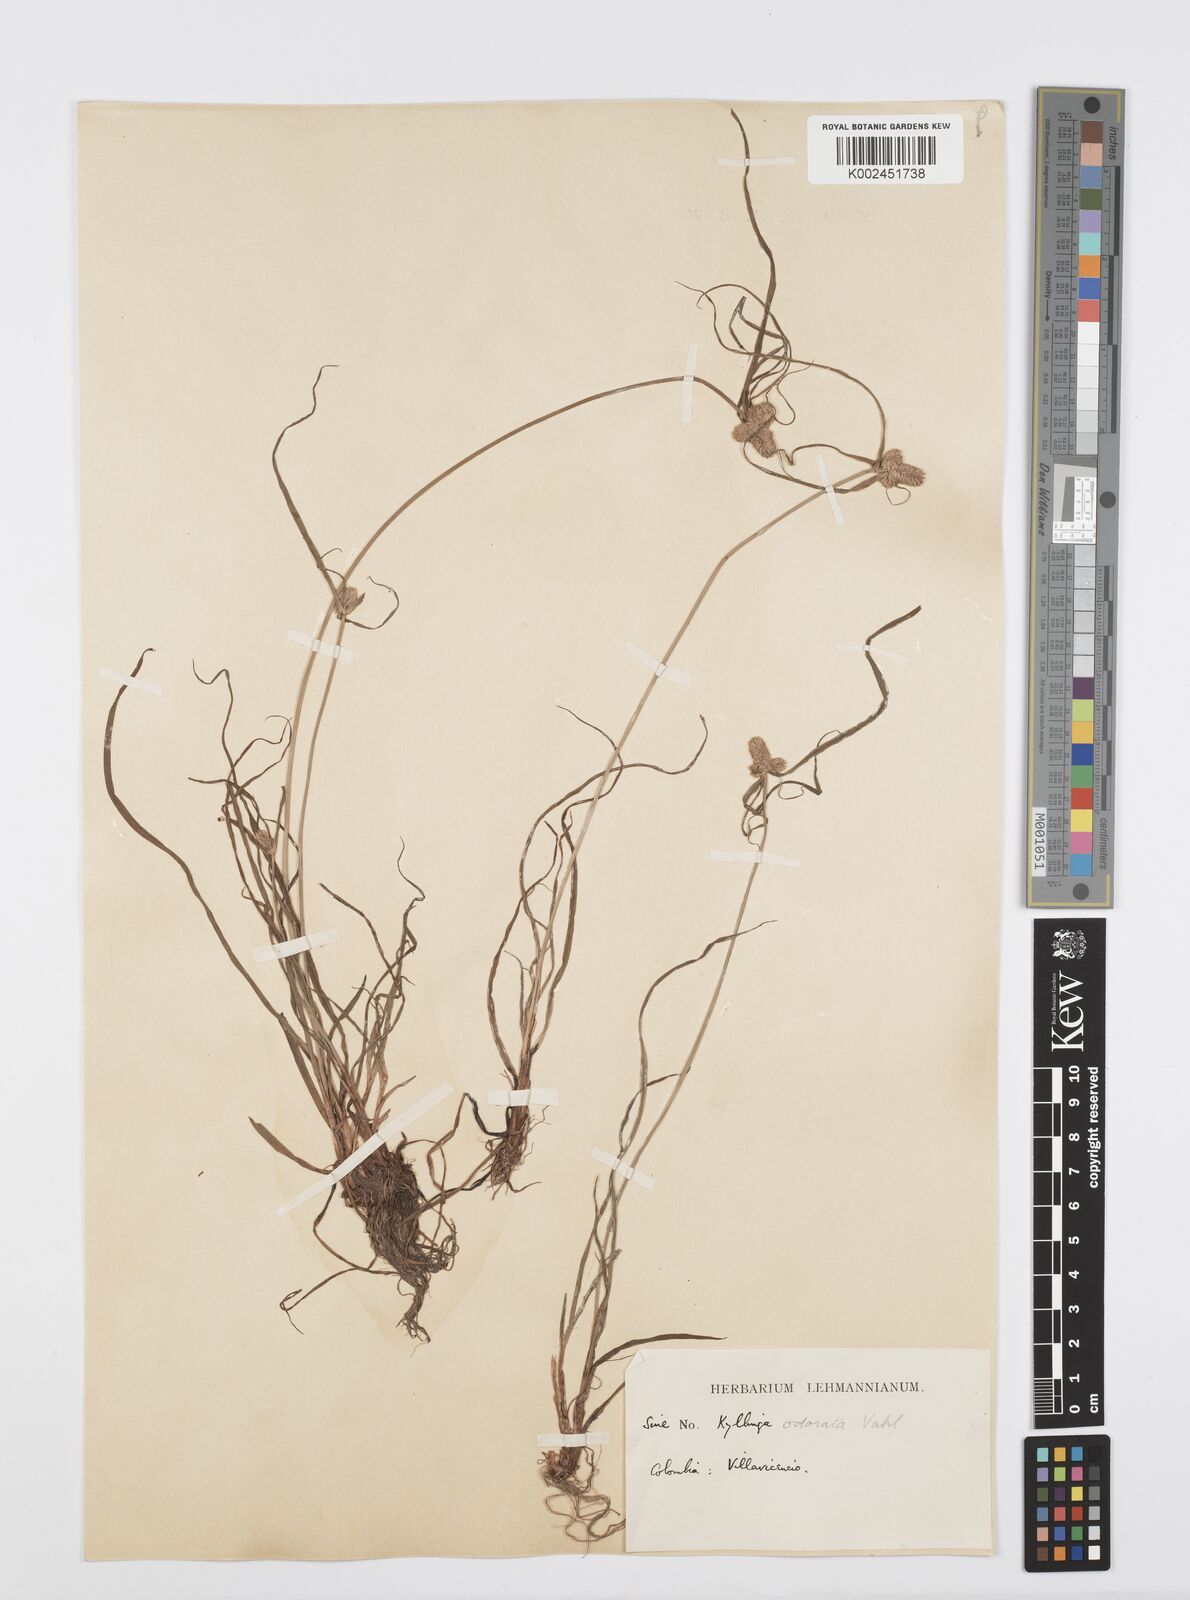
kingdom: Plantae
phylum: Tracheophyta
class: Liliopsida
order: Poales
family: Cyperaceae
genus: Cyperus
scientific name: Cyperus
